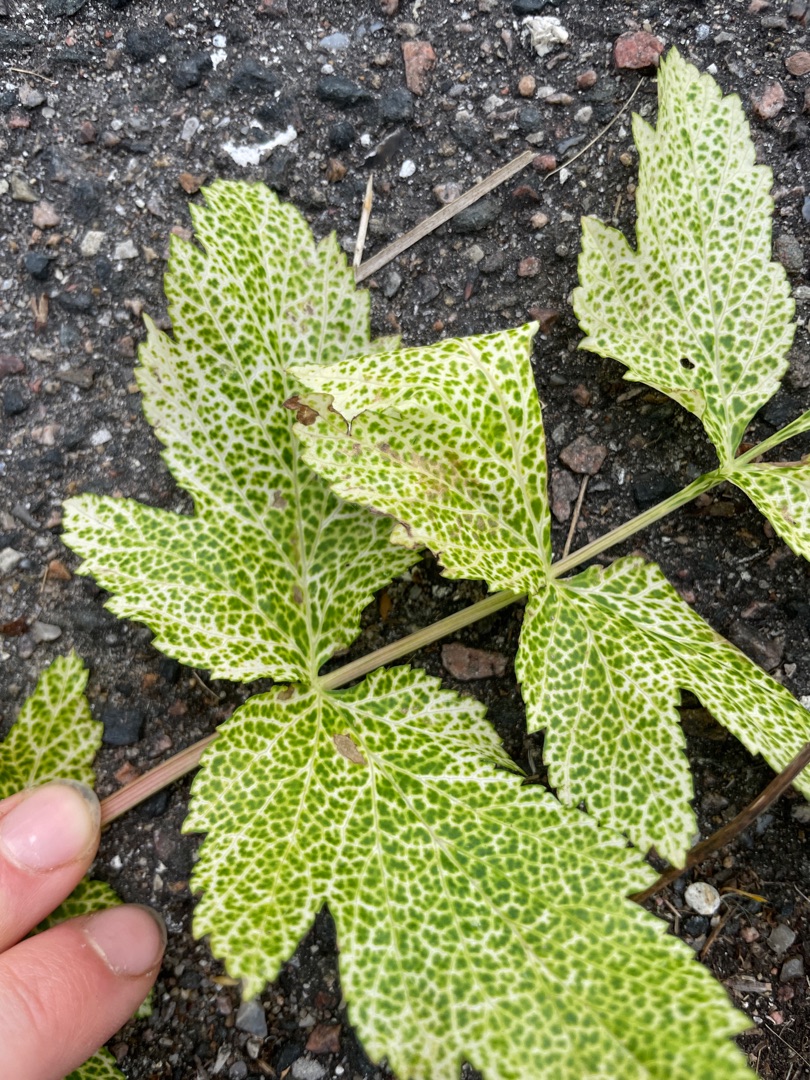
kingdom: Plantae
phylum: Tracheophyta
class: Magnoliopsida
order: Apiales
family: Apiaceae
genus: Pastinaca
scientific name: Pastinaca sativa
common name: Pastinak
